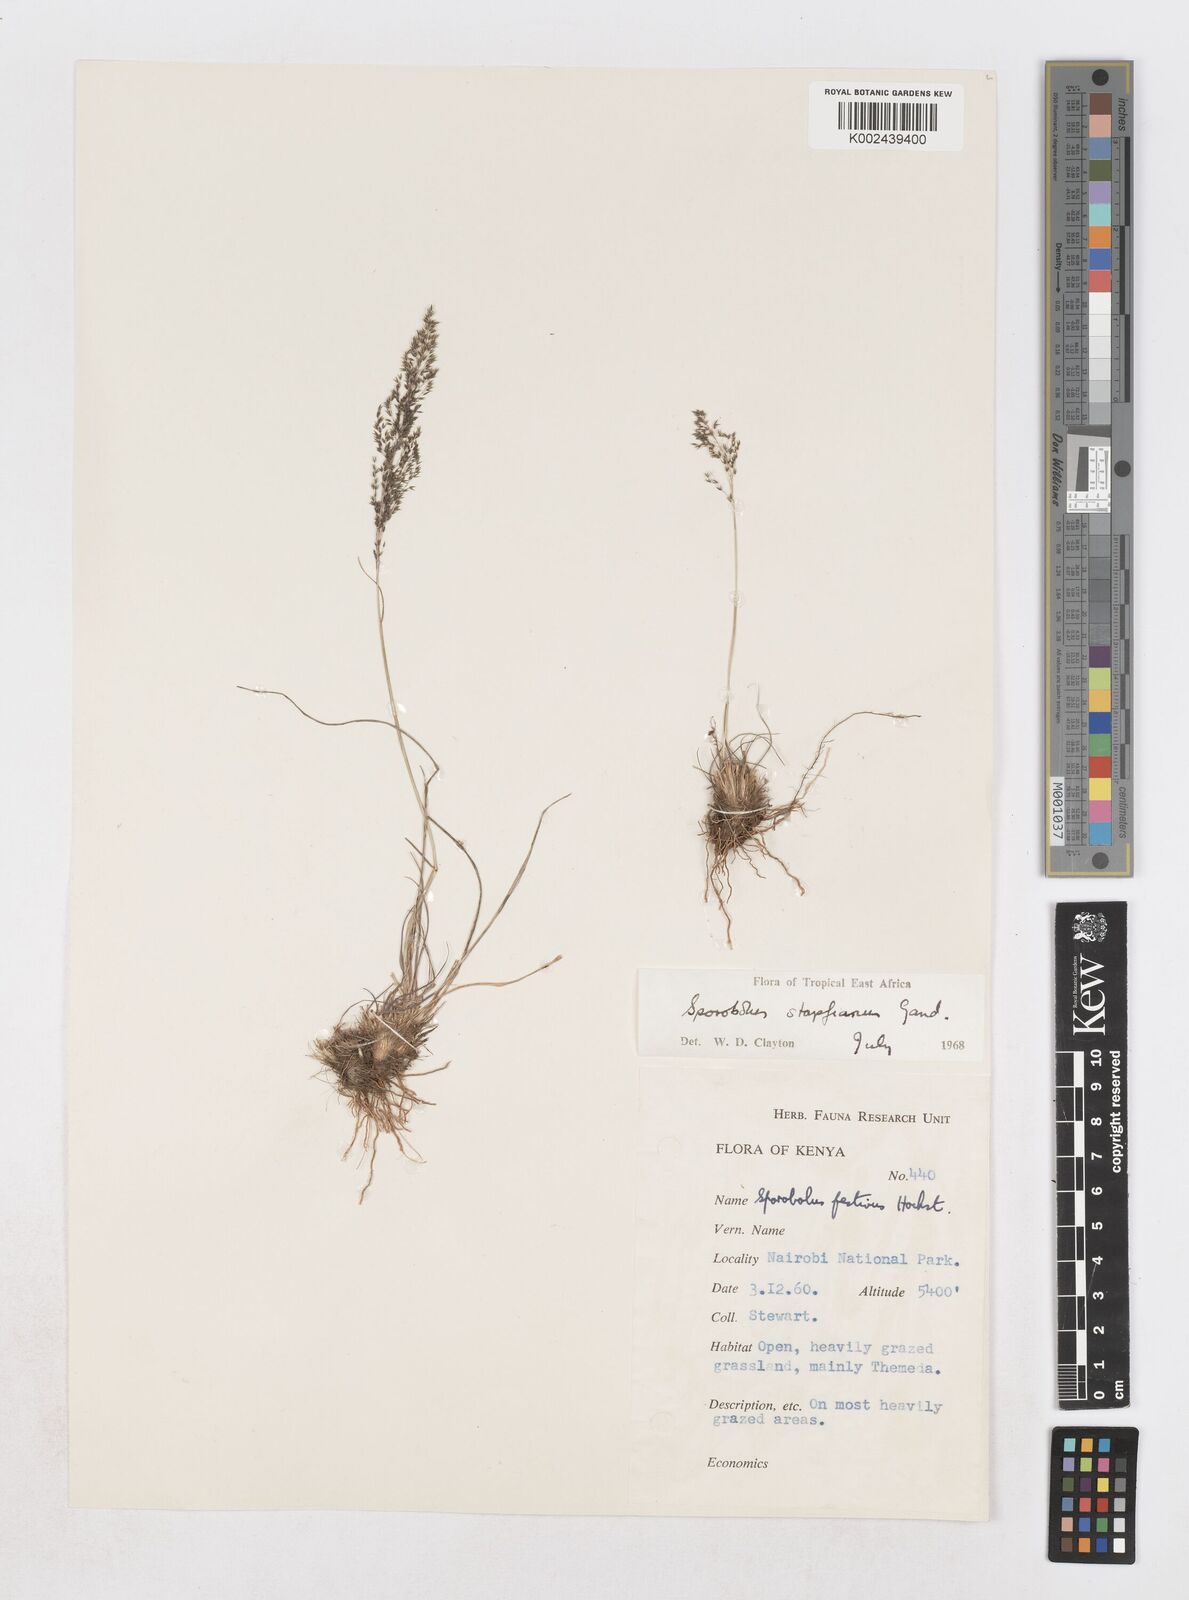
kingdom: Plantae
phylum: Tracheophyta
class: Liliopsida
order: Poales
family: Poaceae
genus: Sporobolus
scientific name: Sporobolus stapfianus
